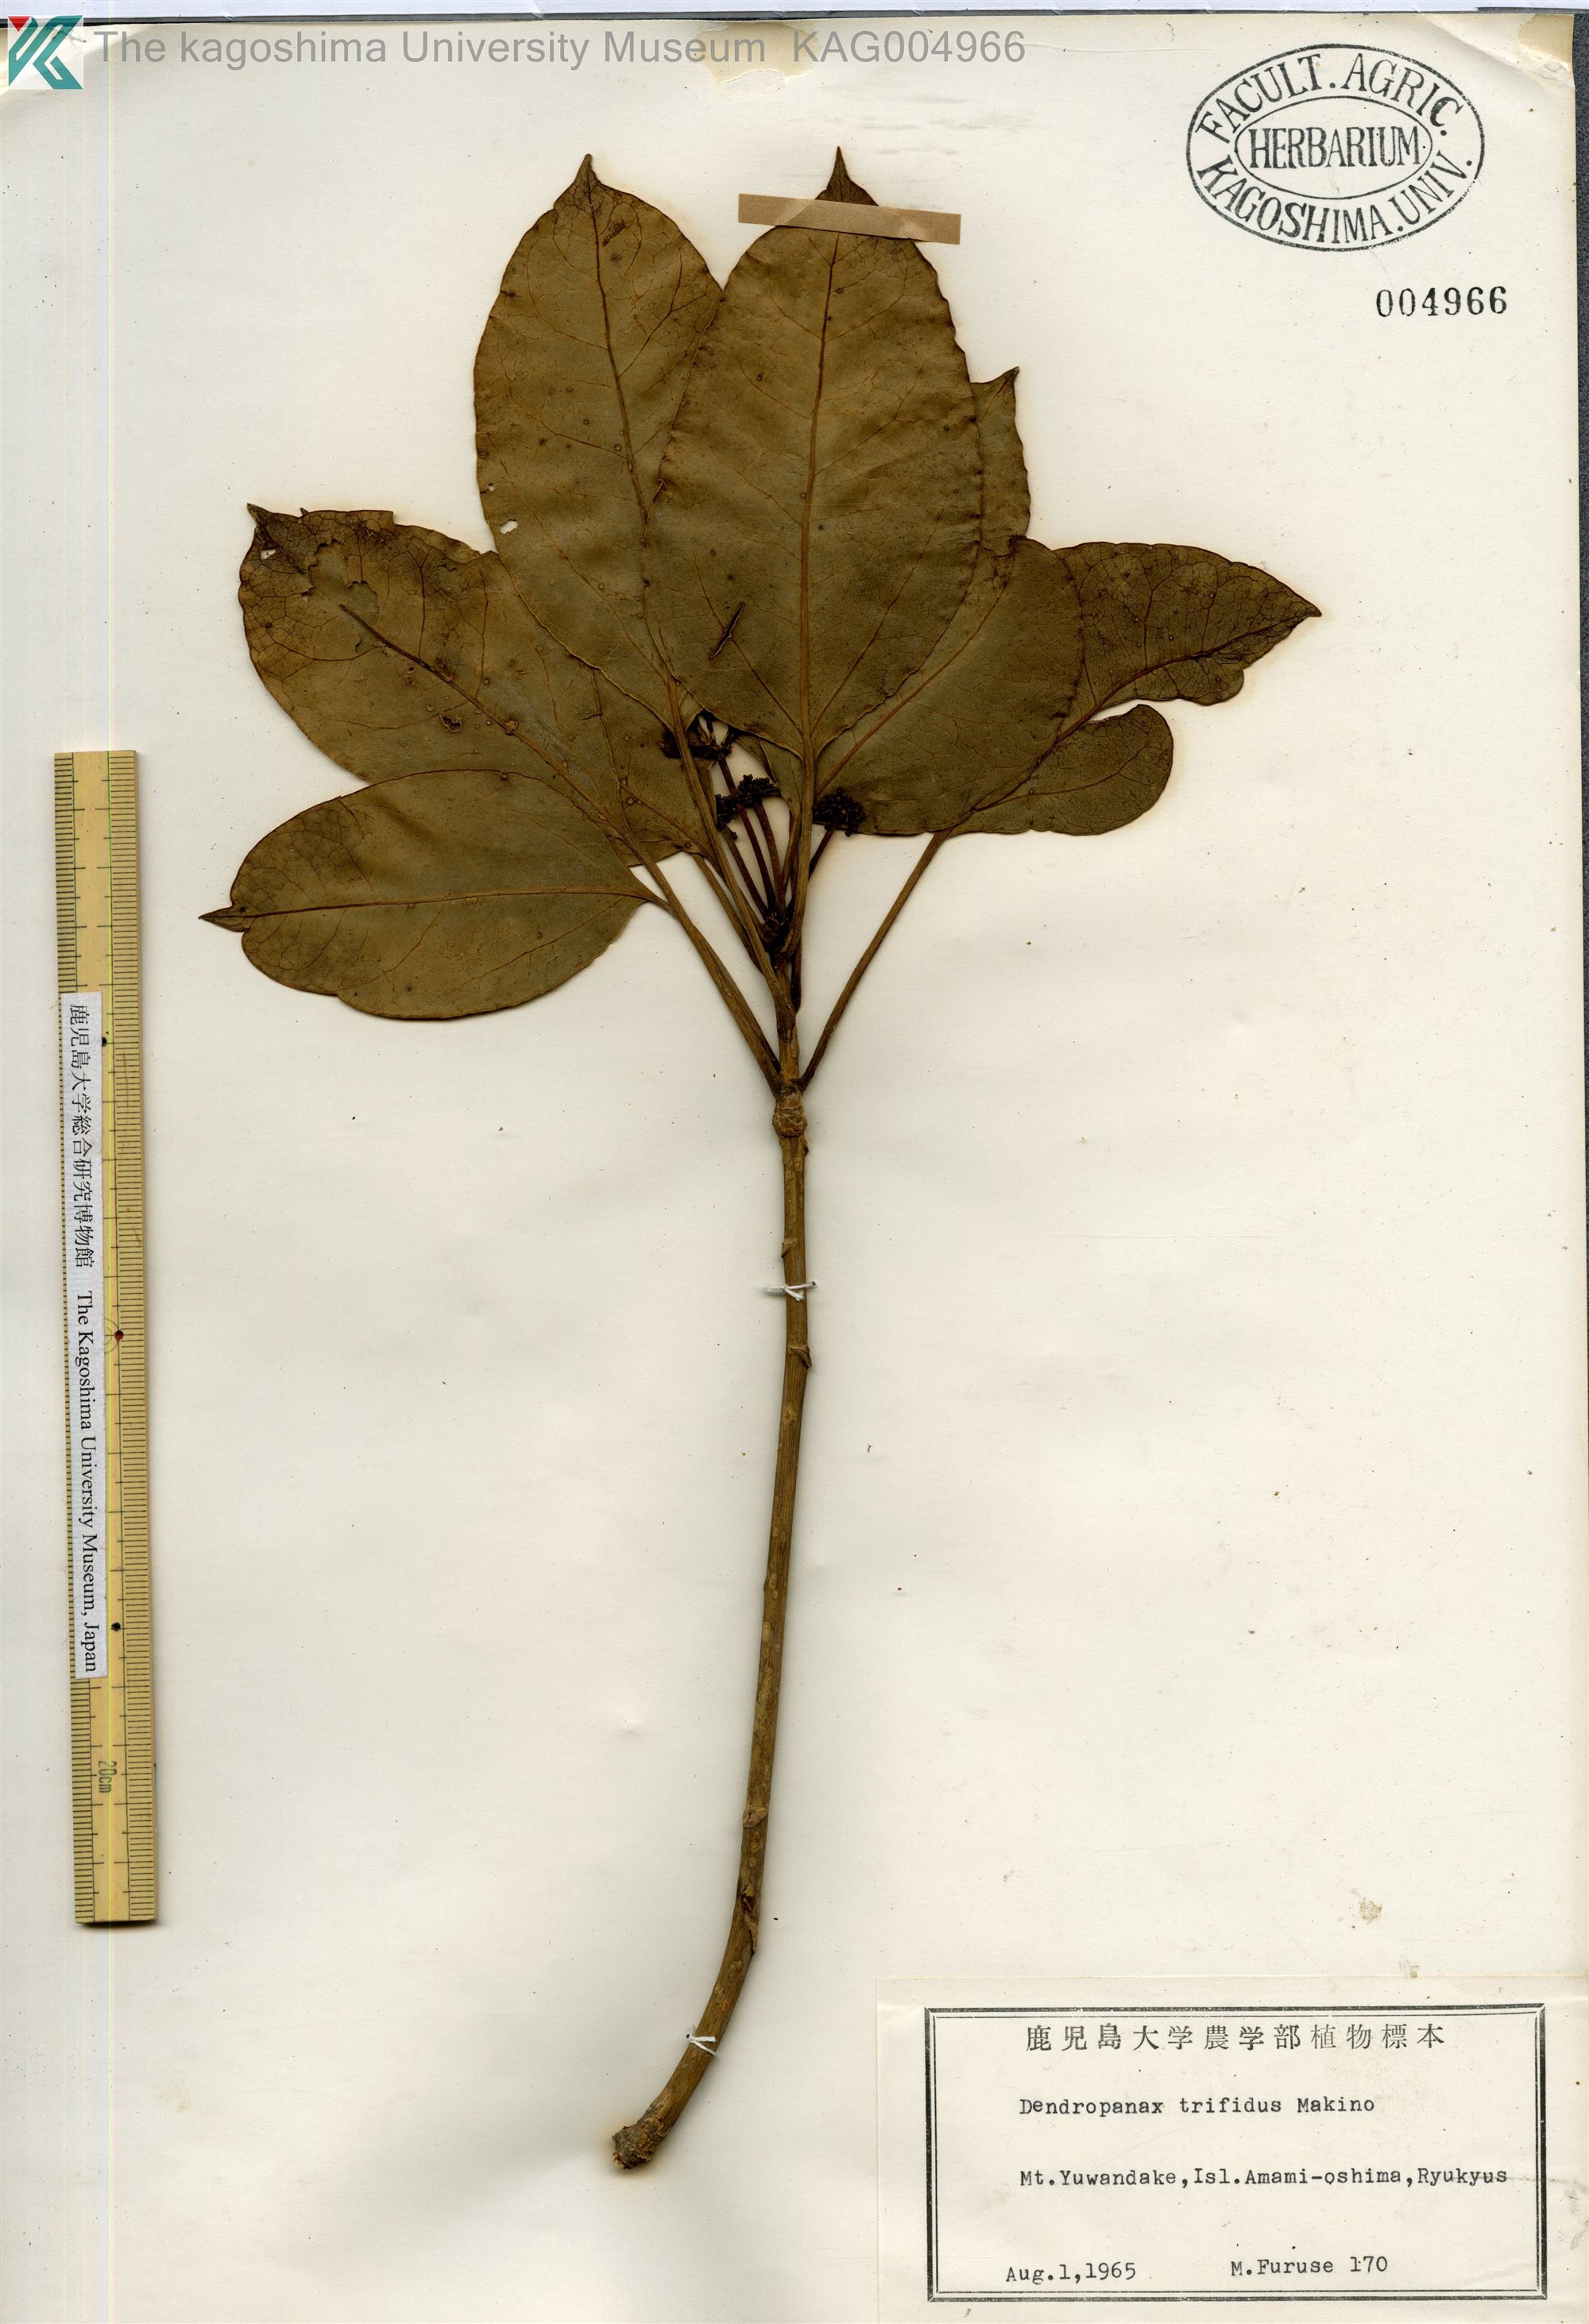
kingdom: Plantae
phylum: Tracheophyta
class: Magnoliopsida
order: Apiales
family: Araliaceae
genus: Dendropanax
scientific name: Dendropanax trifidus
